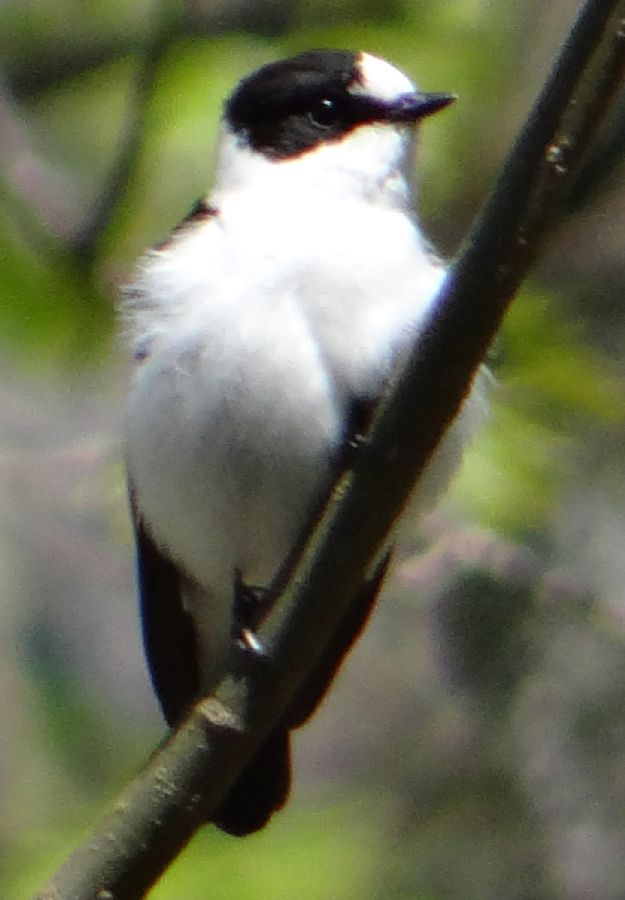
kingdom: Animalia
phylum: Chordata
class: Aves
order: Passeriformes
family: Muscicapidae
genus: Ficedula
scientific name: Ficedula albicollis
